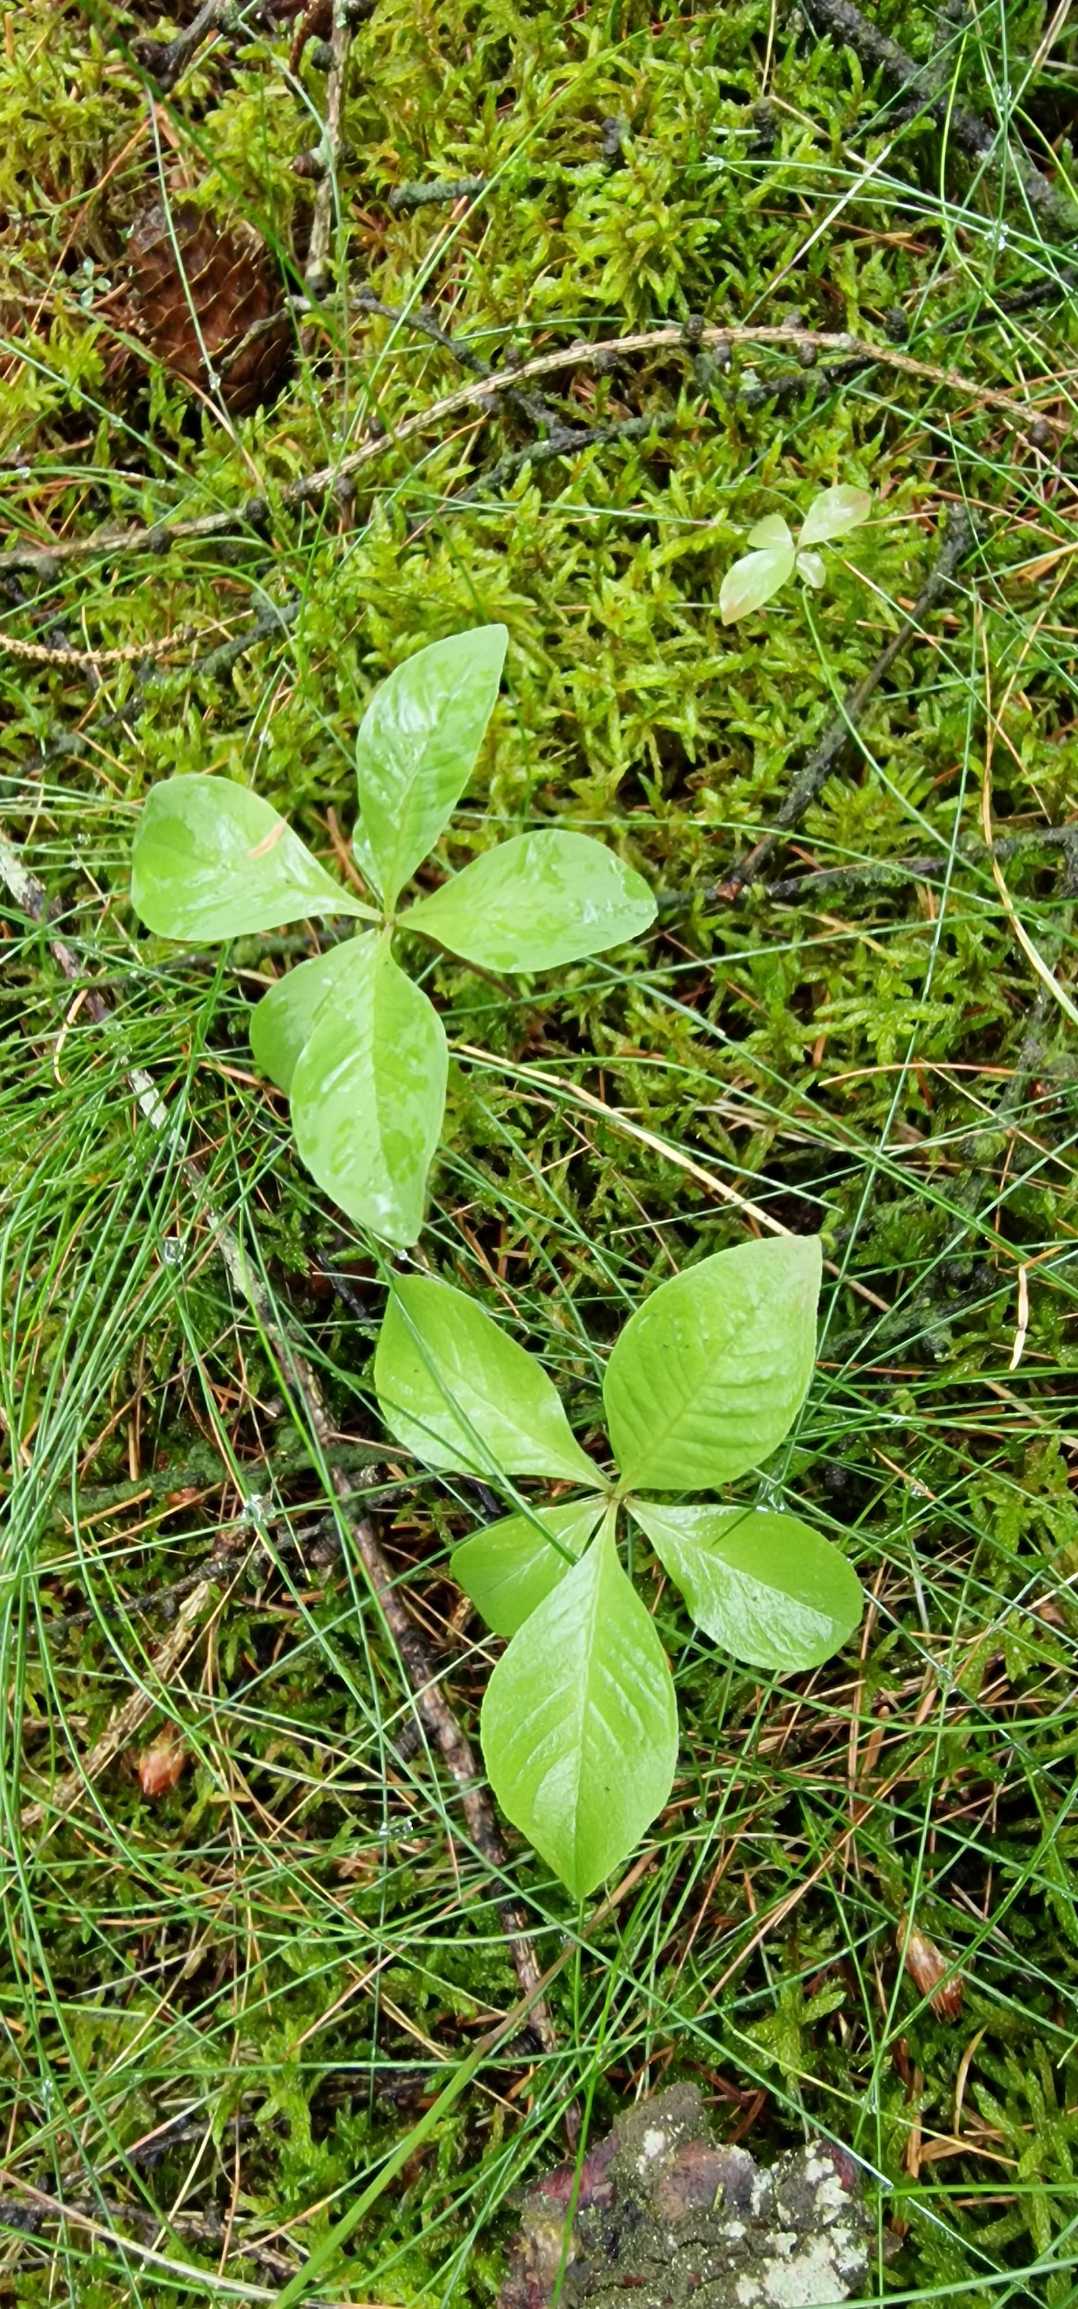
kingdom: Plantae
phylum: Tracheophyta
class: Magnoliopsida
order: Ericales
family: Primulaceae
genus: Lysimachia
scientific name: Lysimachia europaea
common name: Skovstjerne
